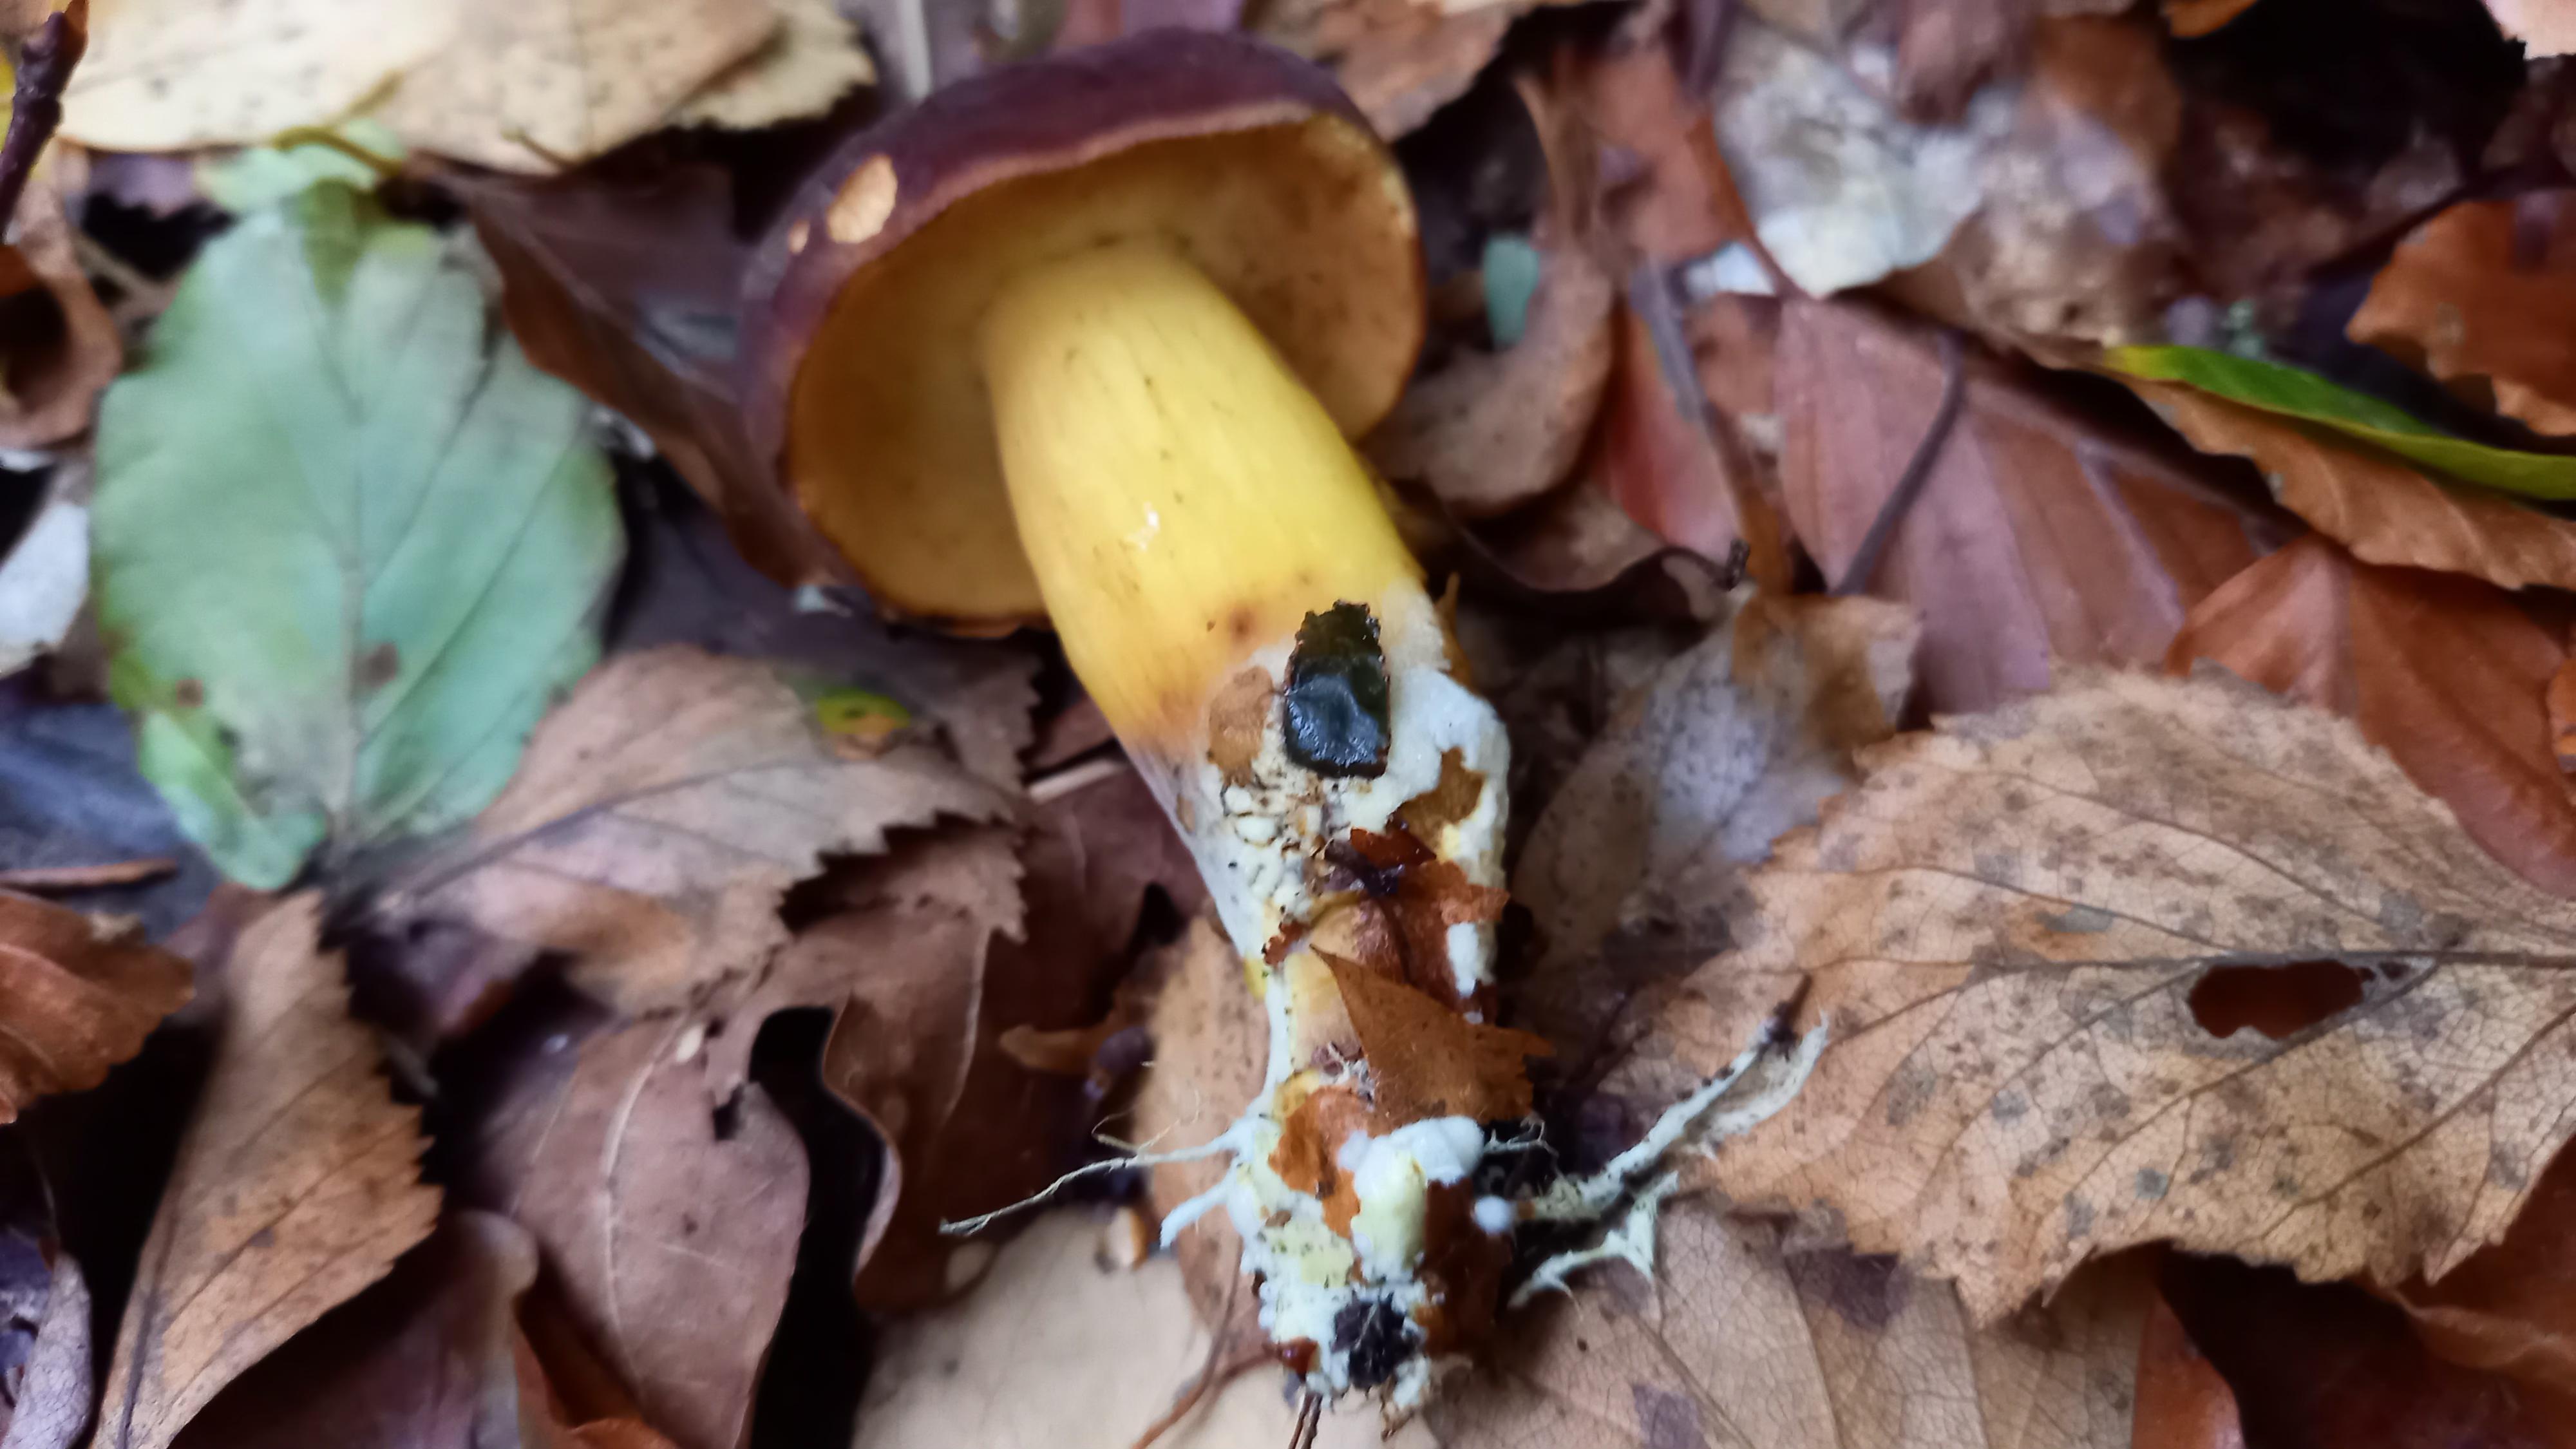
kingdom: Fungi
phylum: Basidiomycota
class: Agaricomycetes
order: Boletales
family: Boletaceae
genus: Xerocomellus
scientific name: Xerocomellus pruinatus
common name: dugget rørhat
